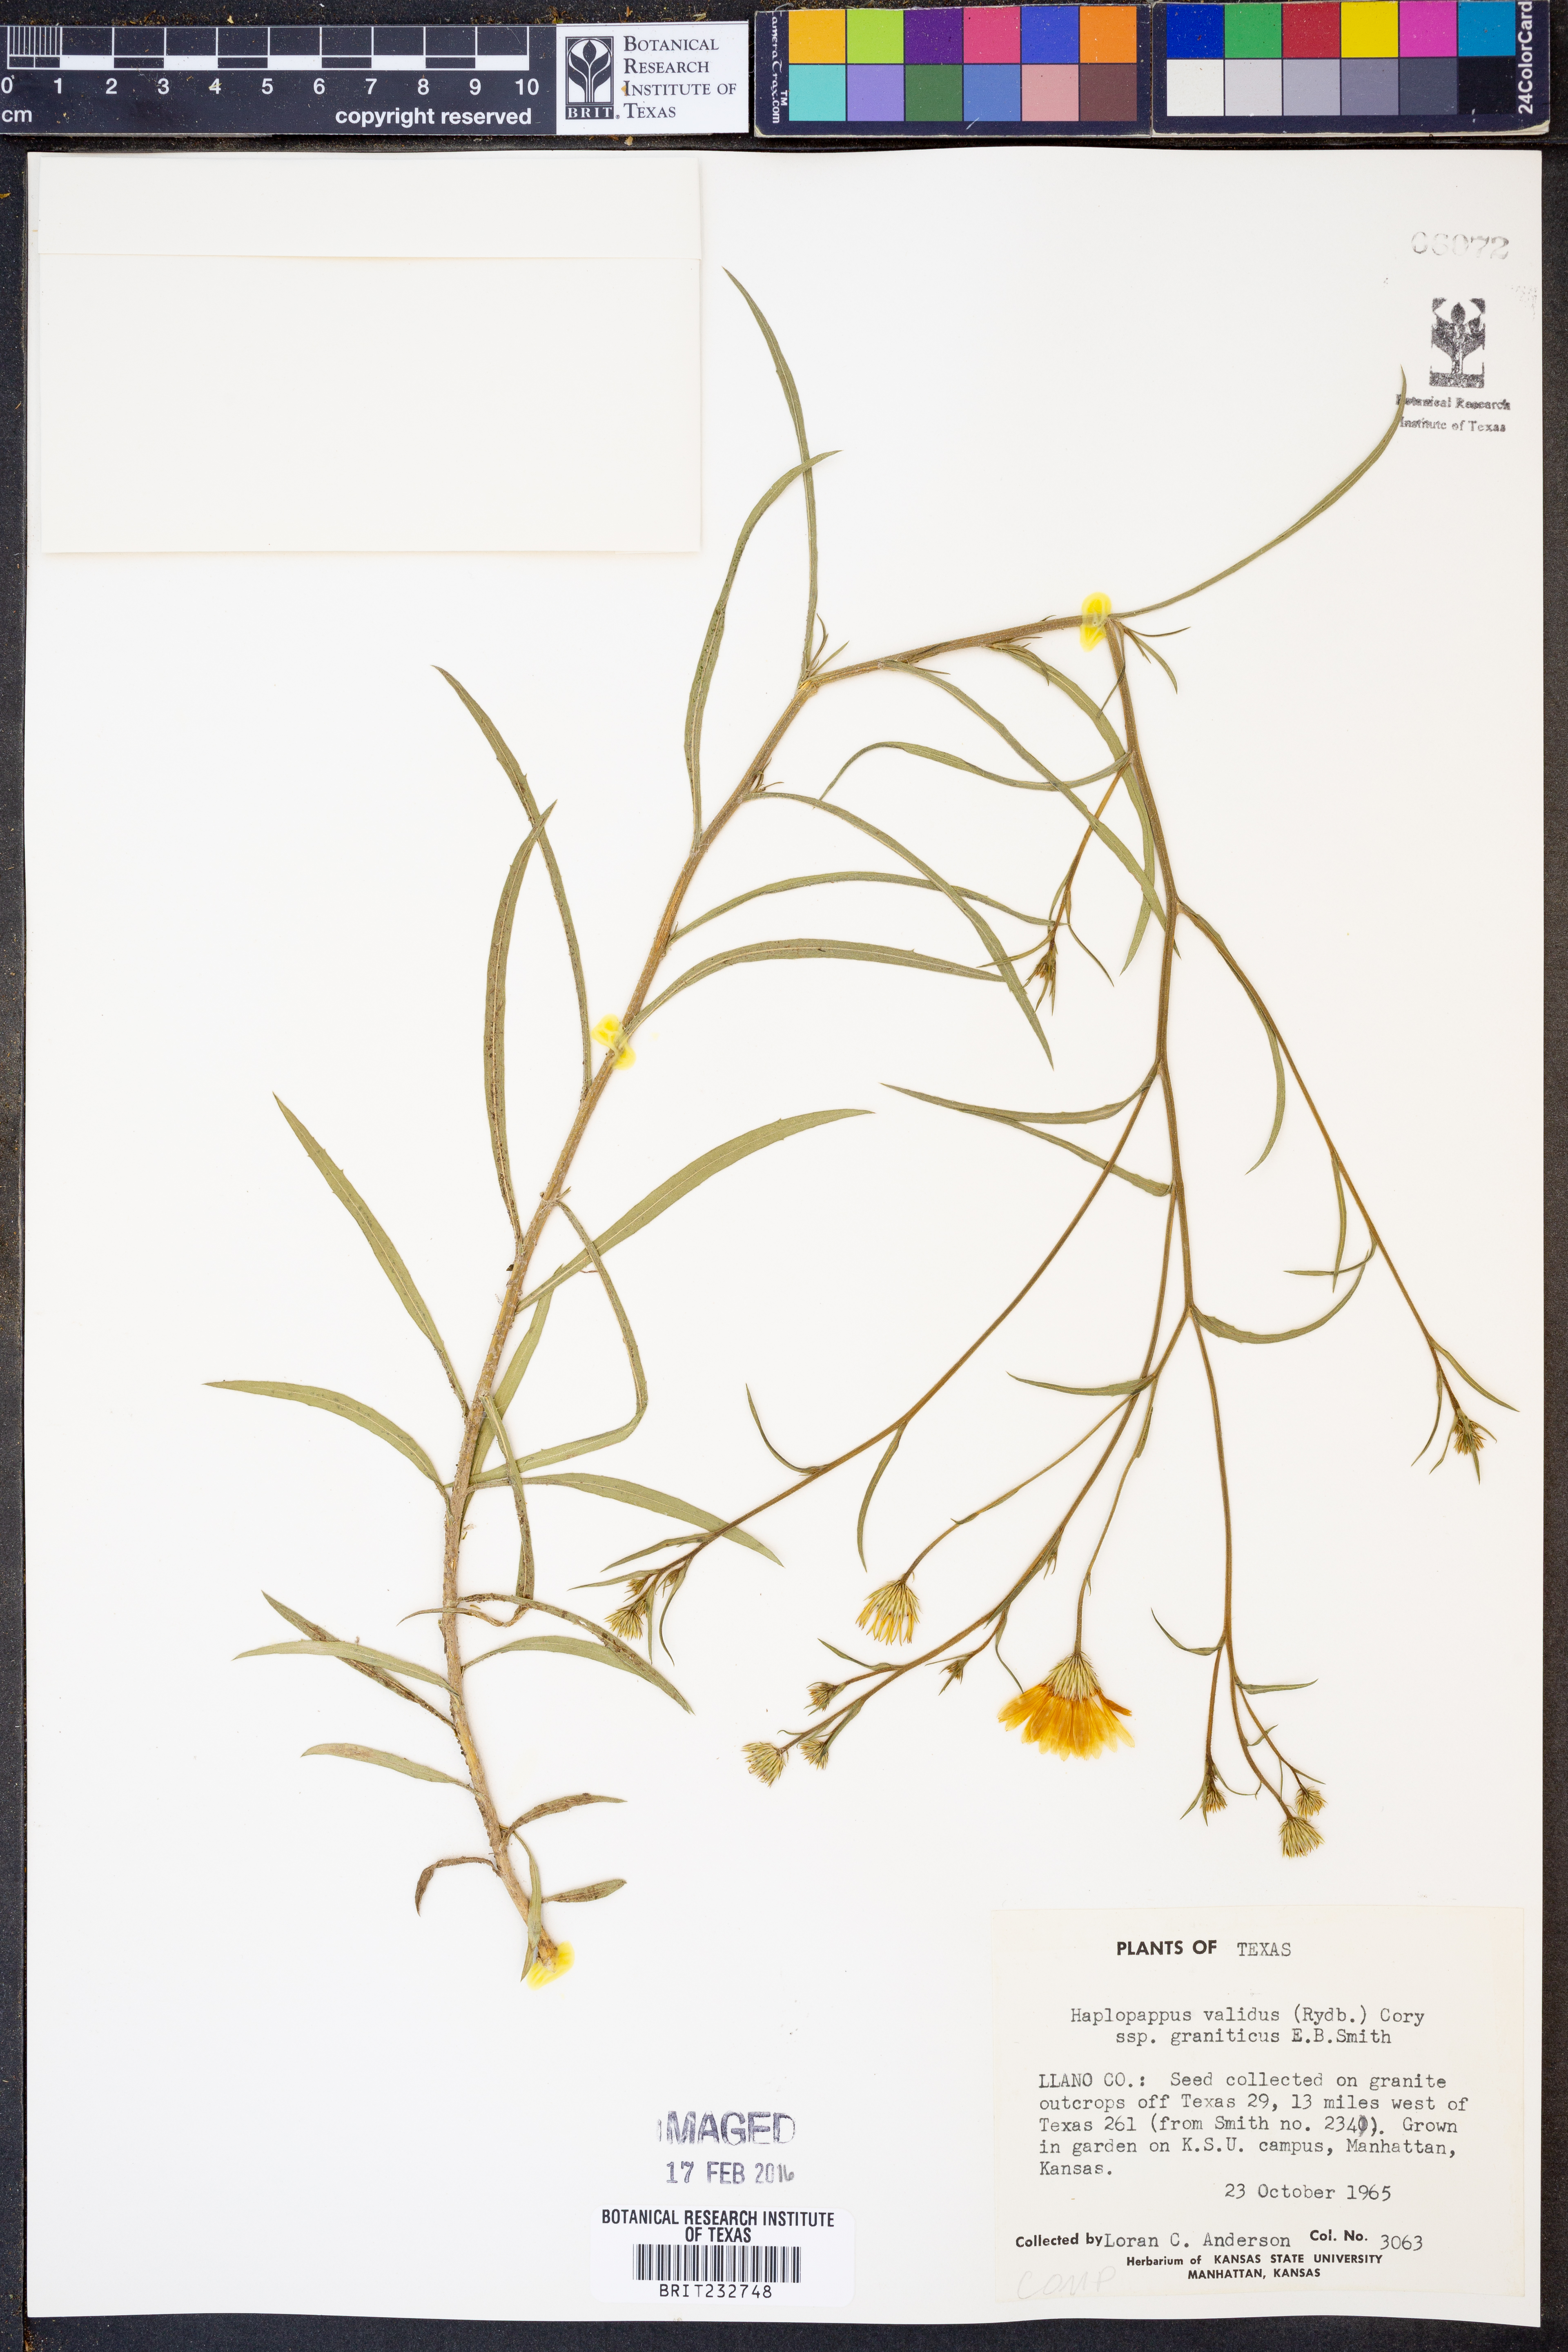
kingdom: Plantae
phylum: Tracheophyta
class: Magnoliopsida
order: Asterales
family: Asteraceae
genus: Croptilon
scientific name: Croptilon hookerianum
